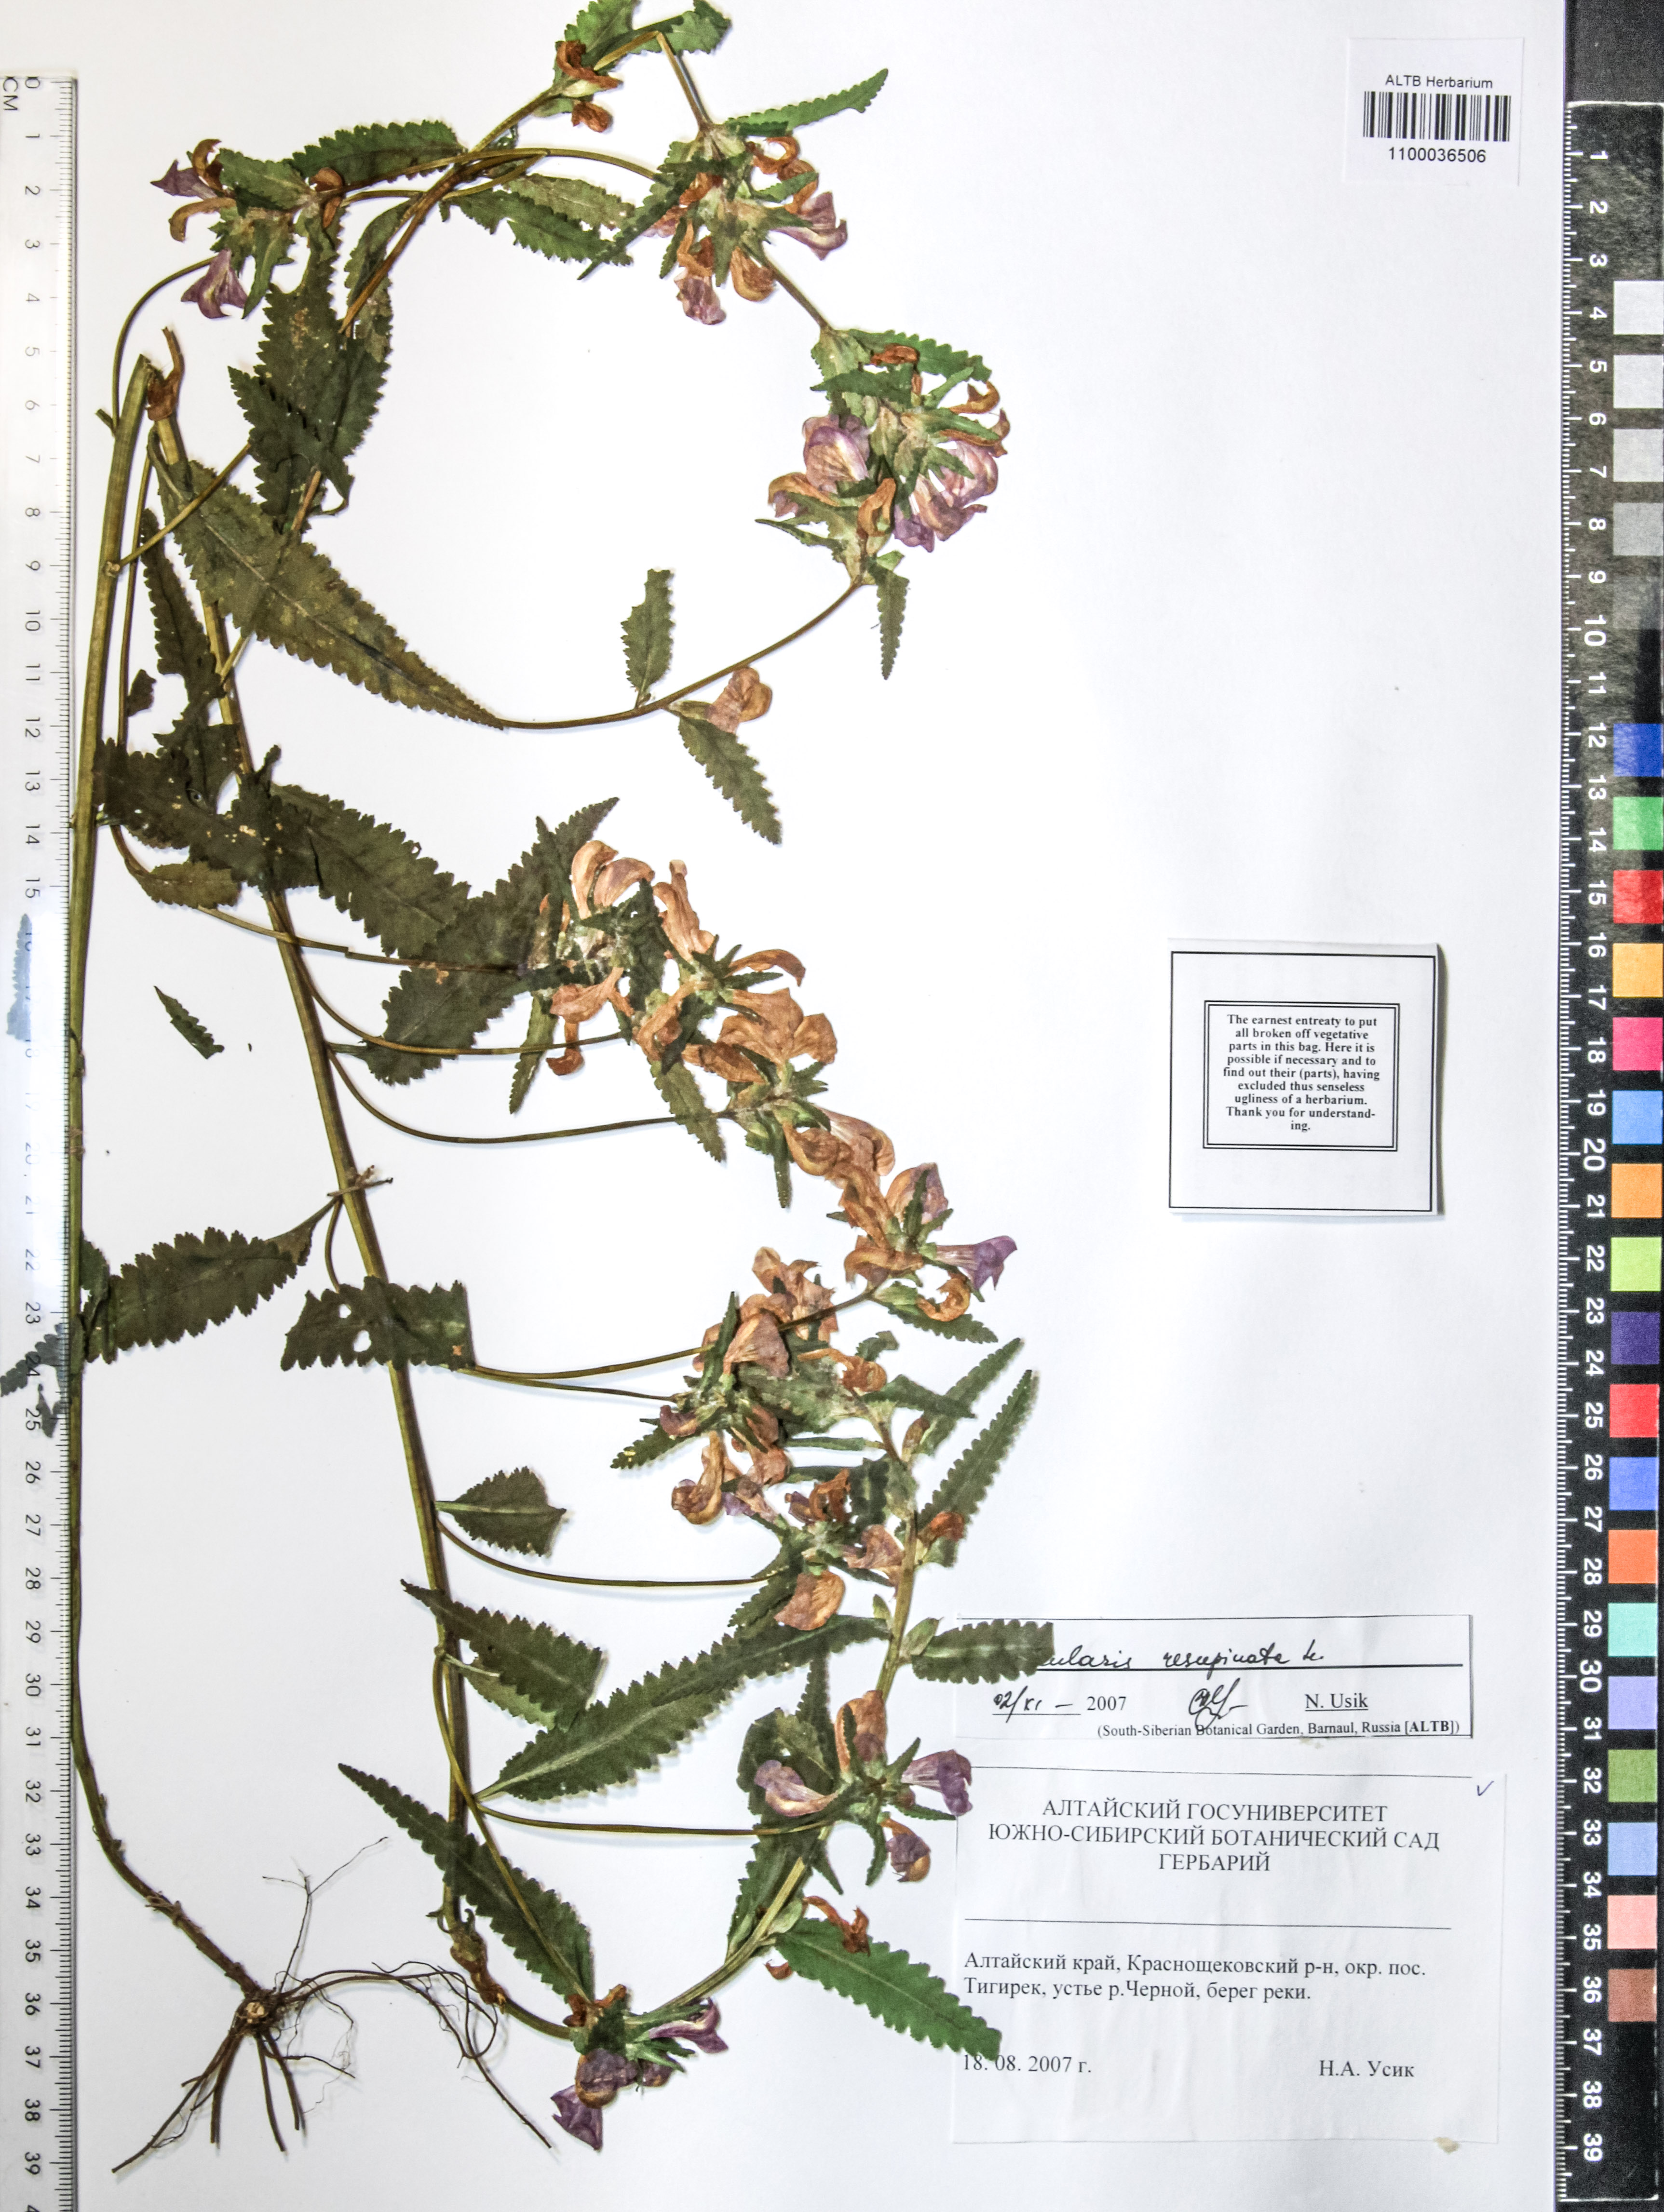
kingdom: Plantae
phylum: Tracheophyta
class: Magnoliopsida
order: Lamiales
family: Orobanchaceae
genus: Pedicularis
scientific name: Pedicularis resupinata
